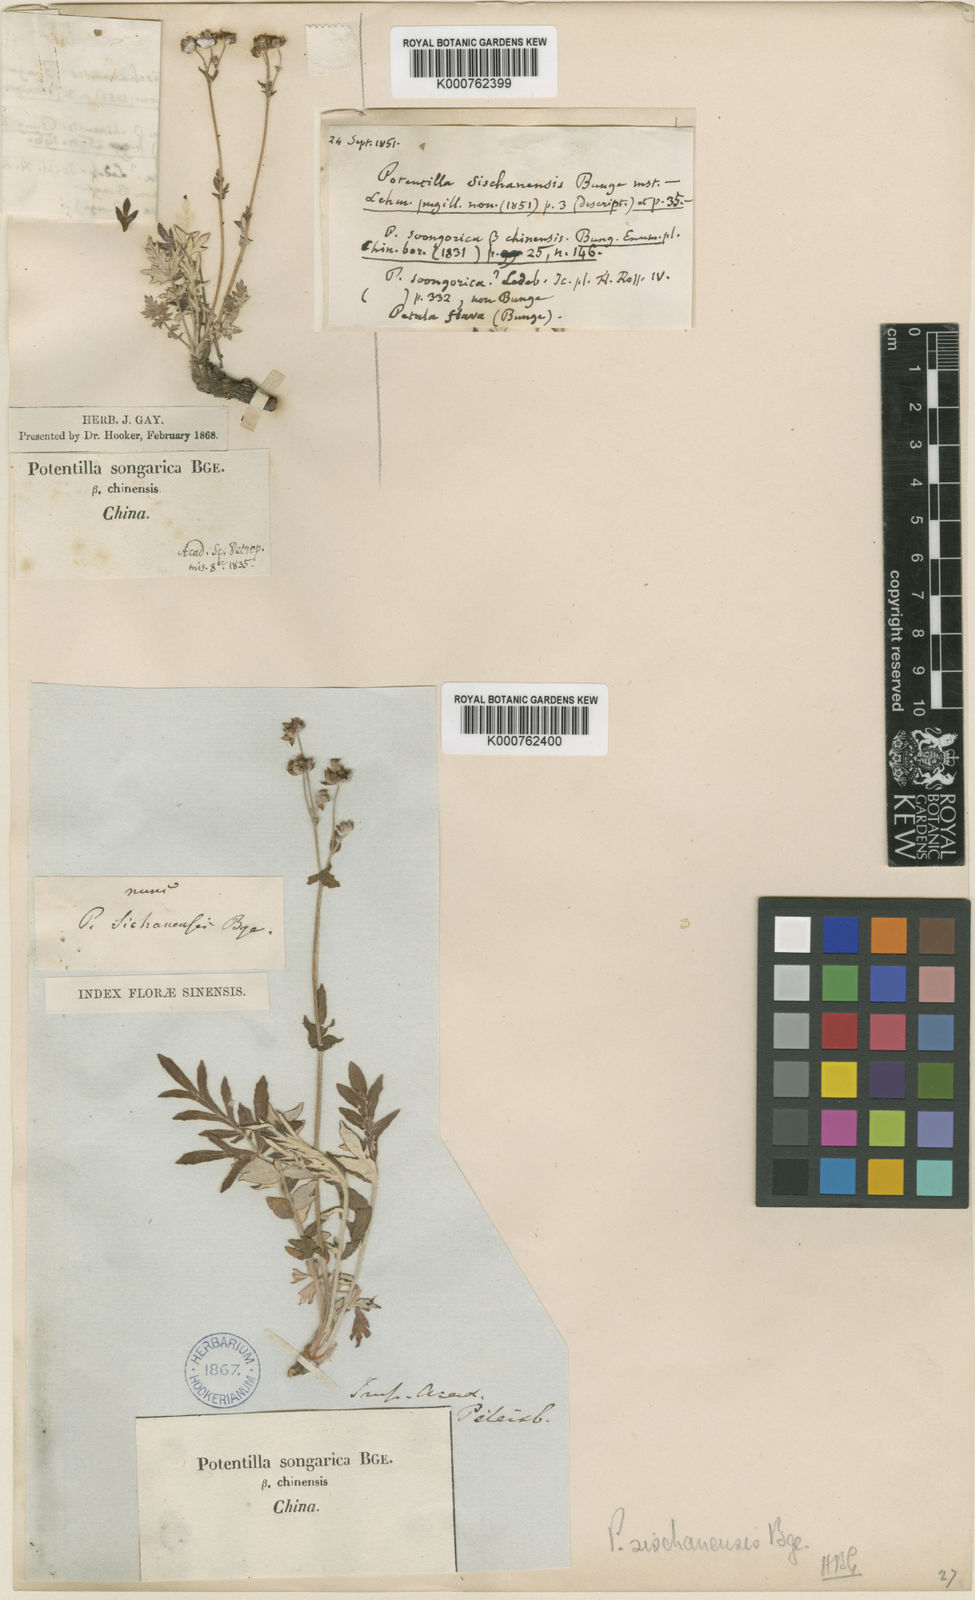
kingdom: Plantae
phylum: Tracheophyta
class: Magnoliopsida
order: Rosales
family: Rosaceae
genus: Potentilla
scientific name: Potentilla
